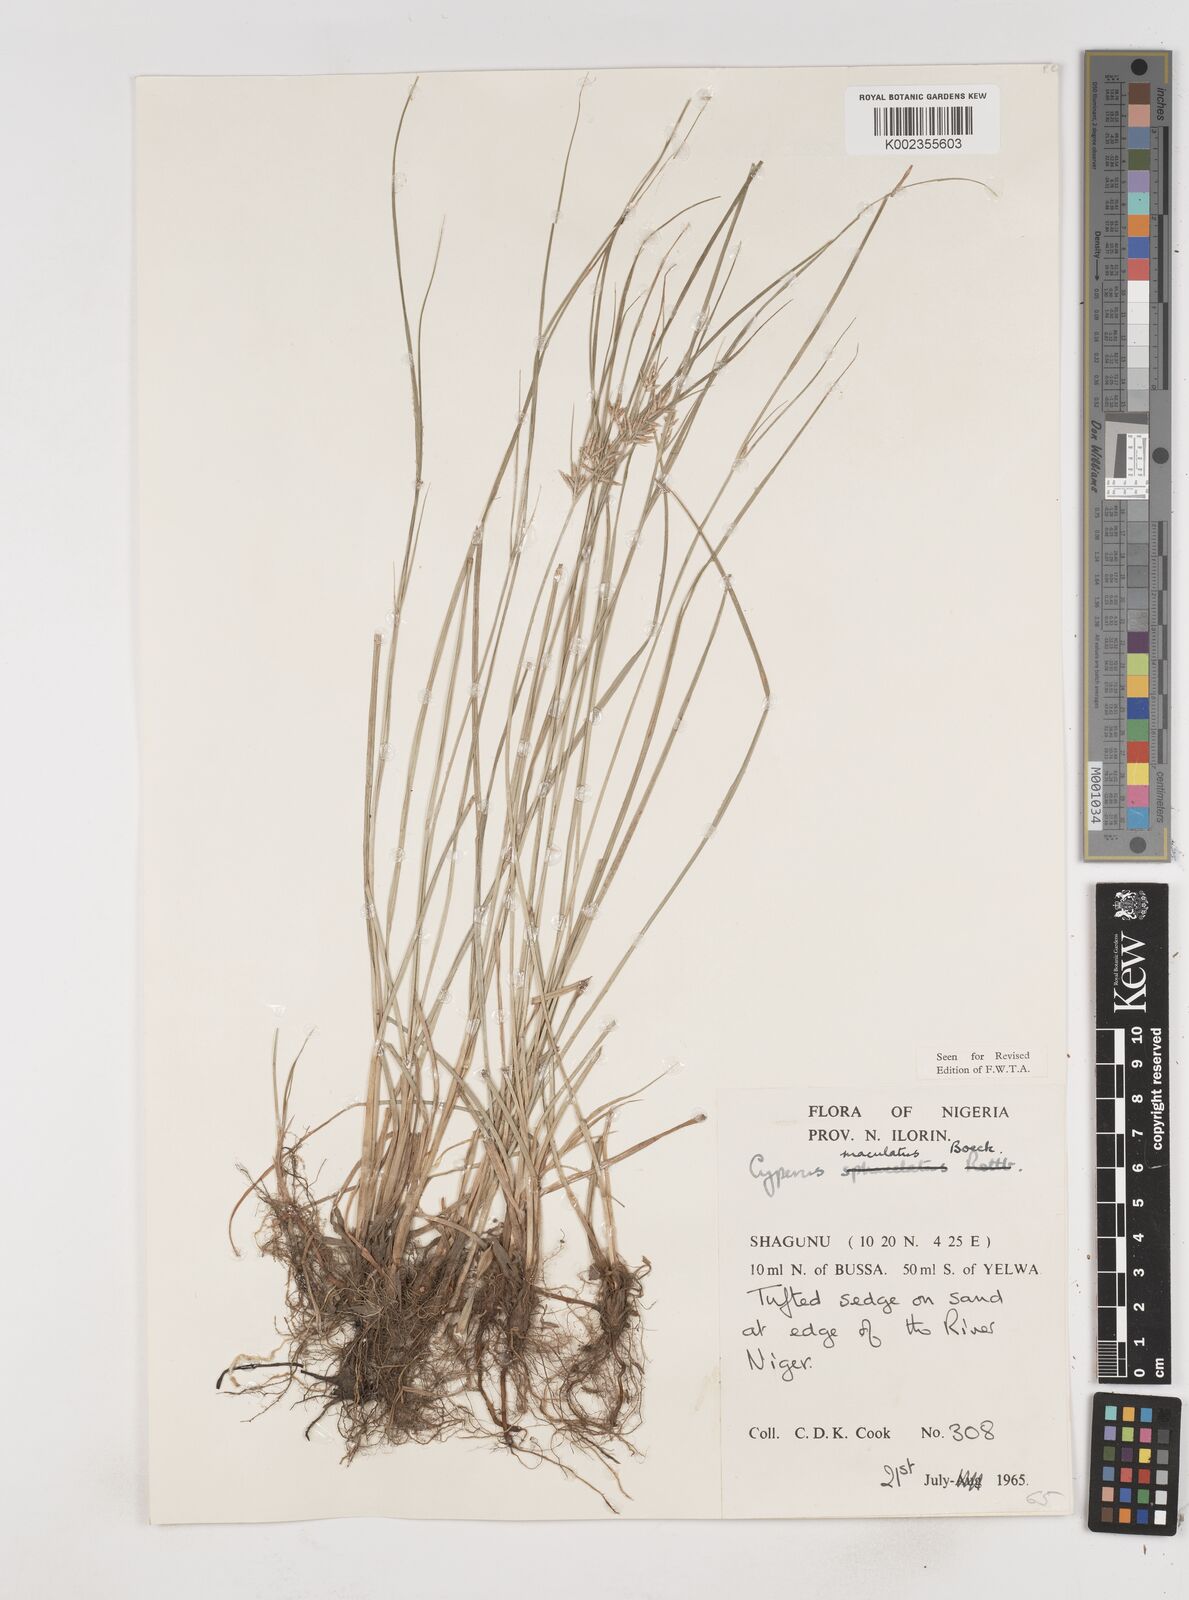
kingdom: Plantae
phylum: Tracheophyta
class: Liliopsida
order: Poales
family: Cyperaceae
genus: Cyperus
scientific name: Cyperus maculatus
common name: Maculated sedge
